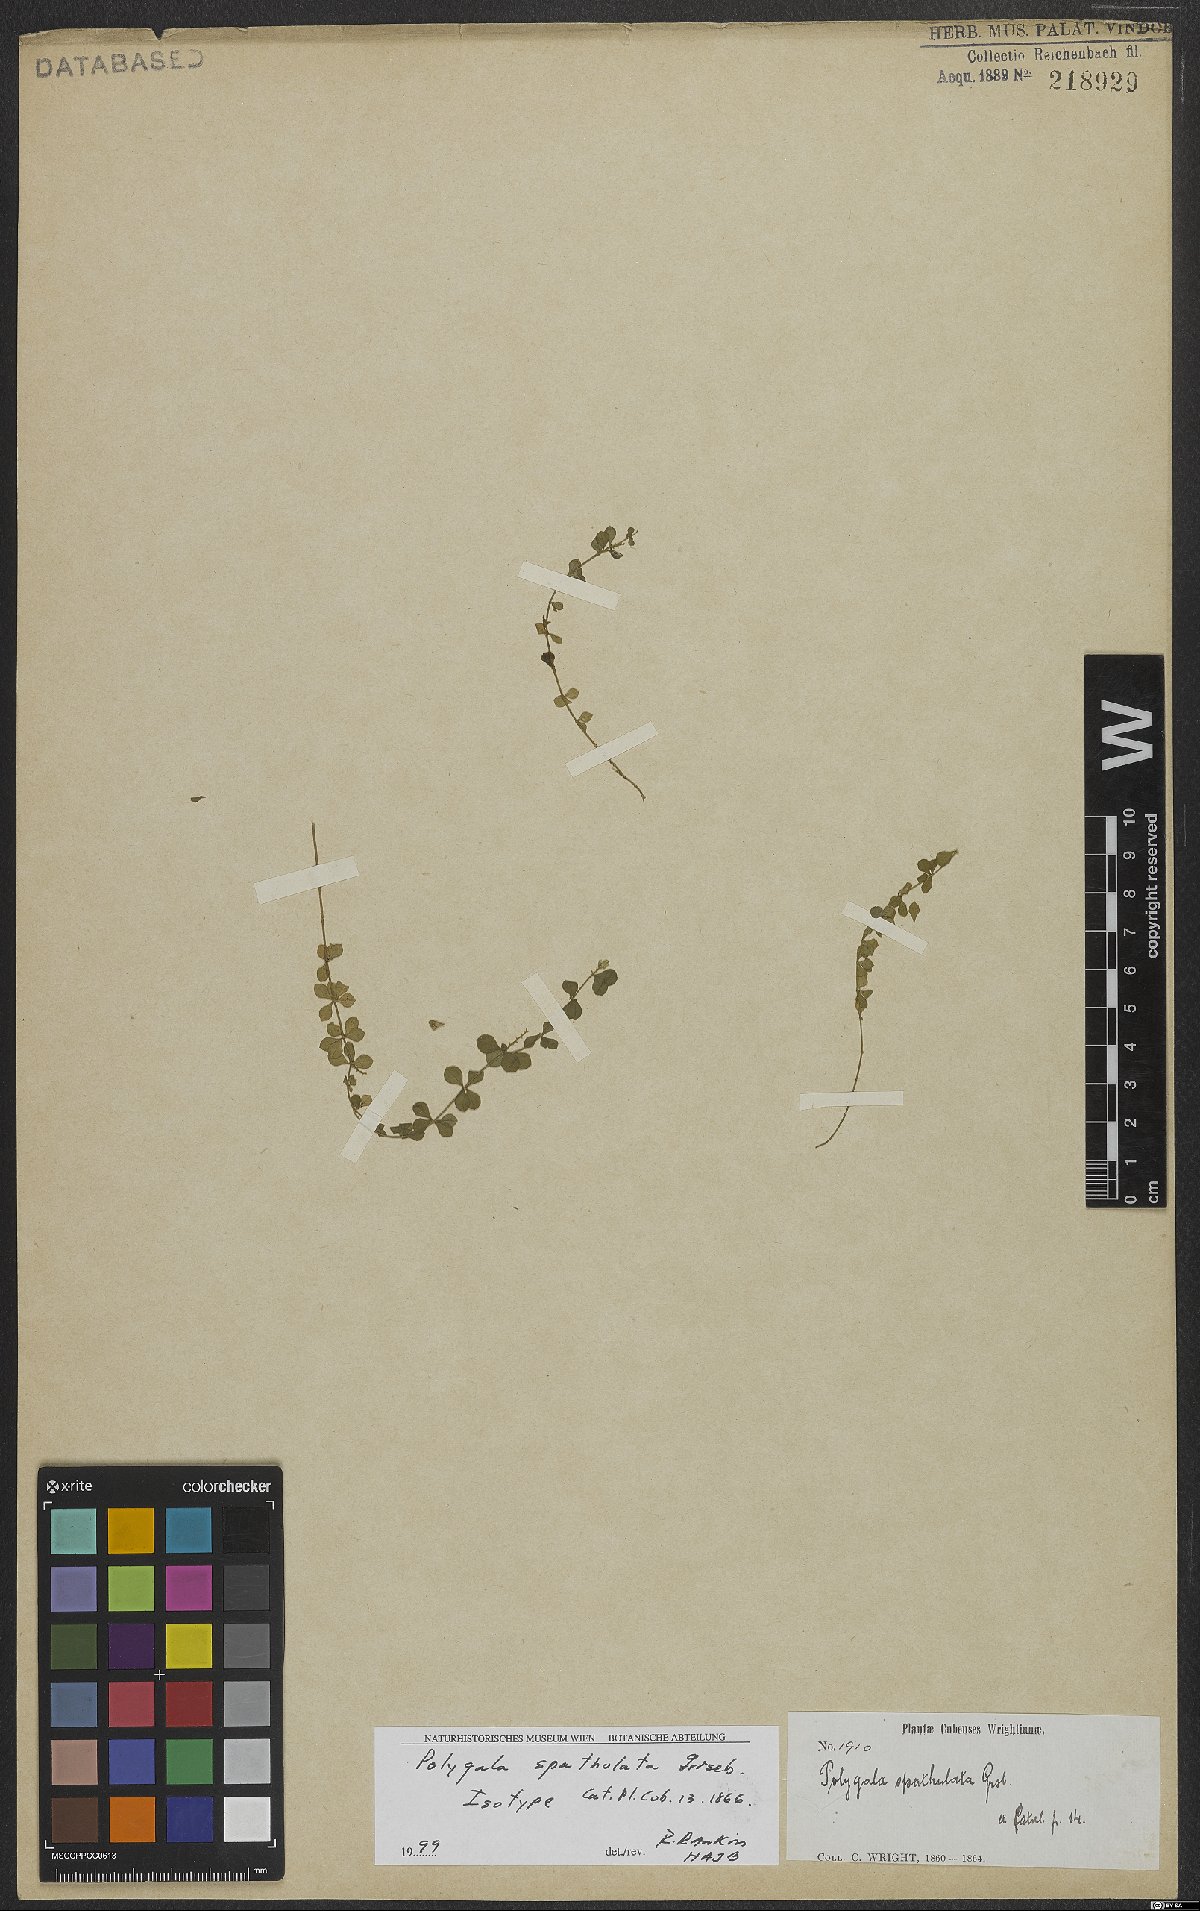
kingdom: Plantae
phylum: Tracheophyta
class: Magnoliopsida
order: Fabales
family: Polygalaceae
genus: Polygala
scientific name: Polygala spathulata
